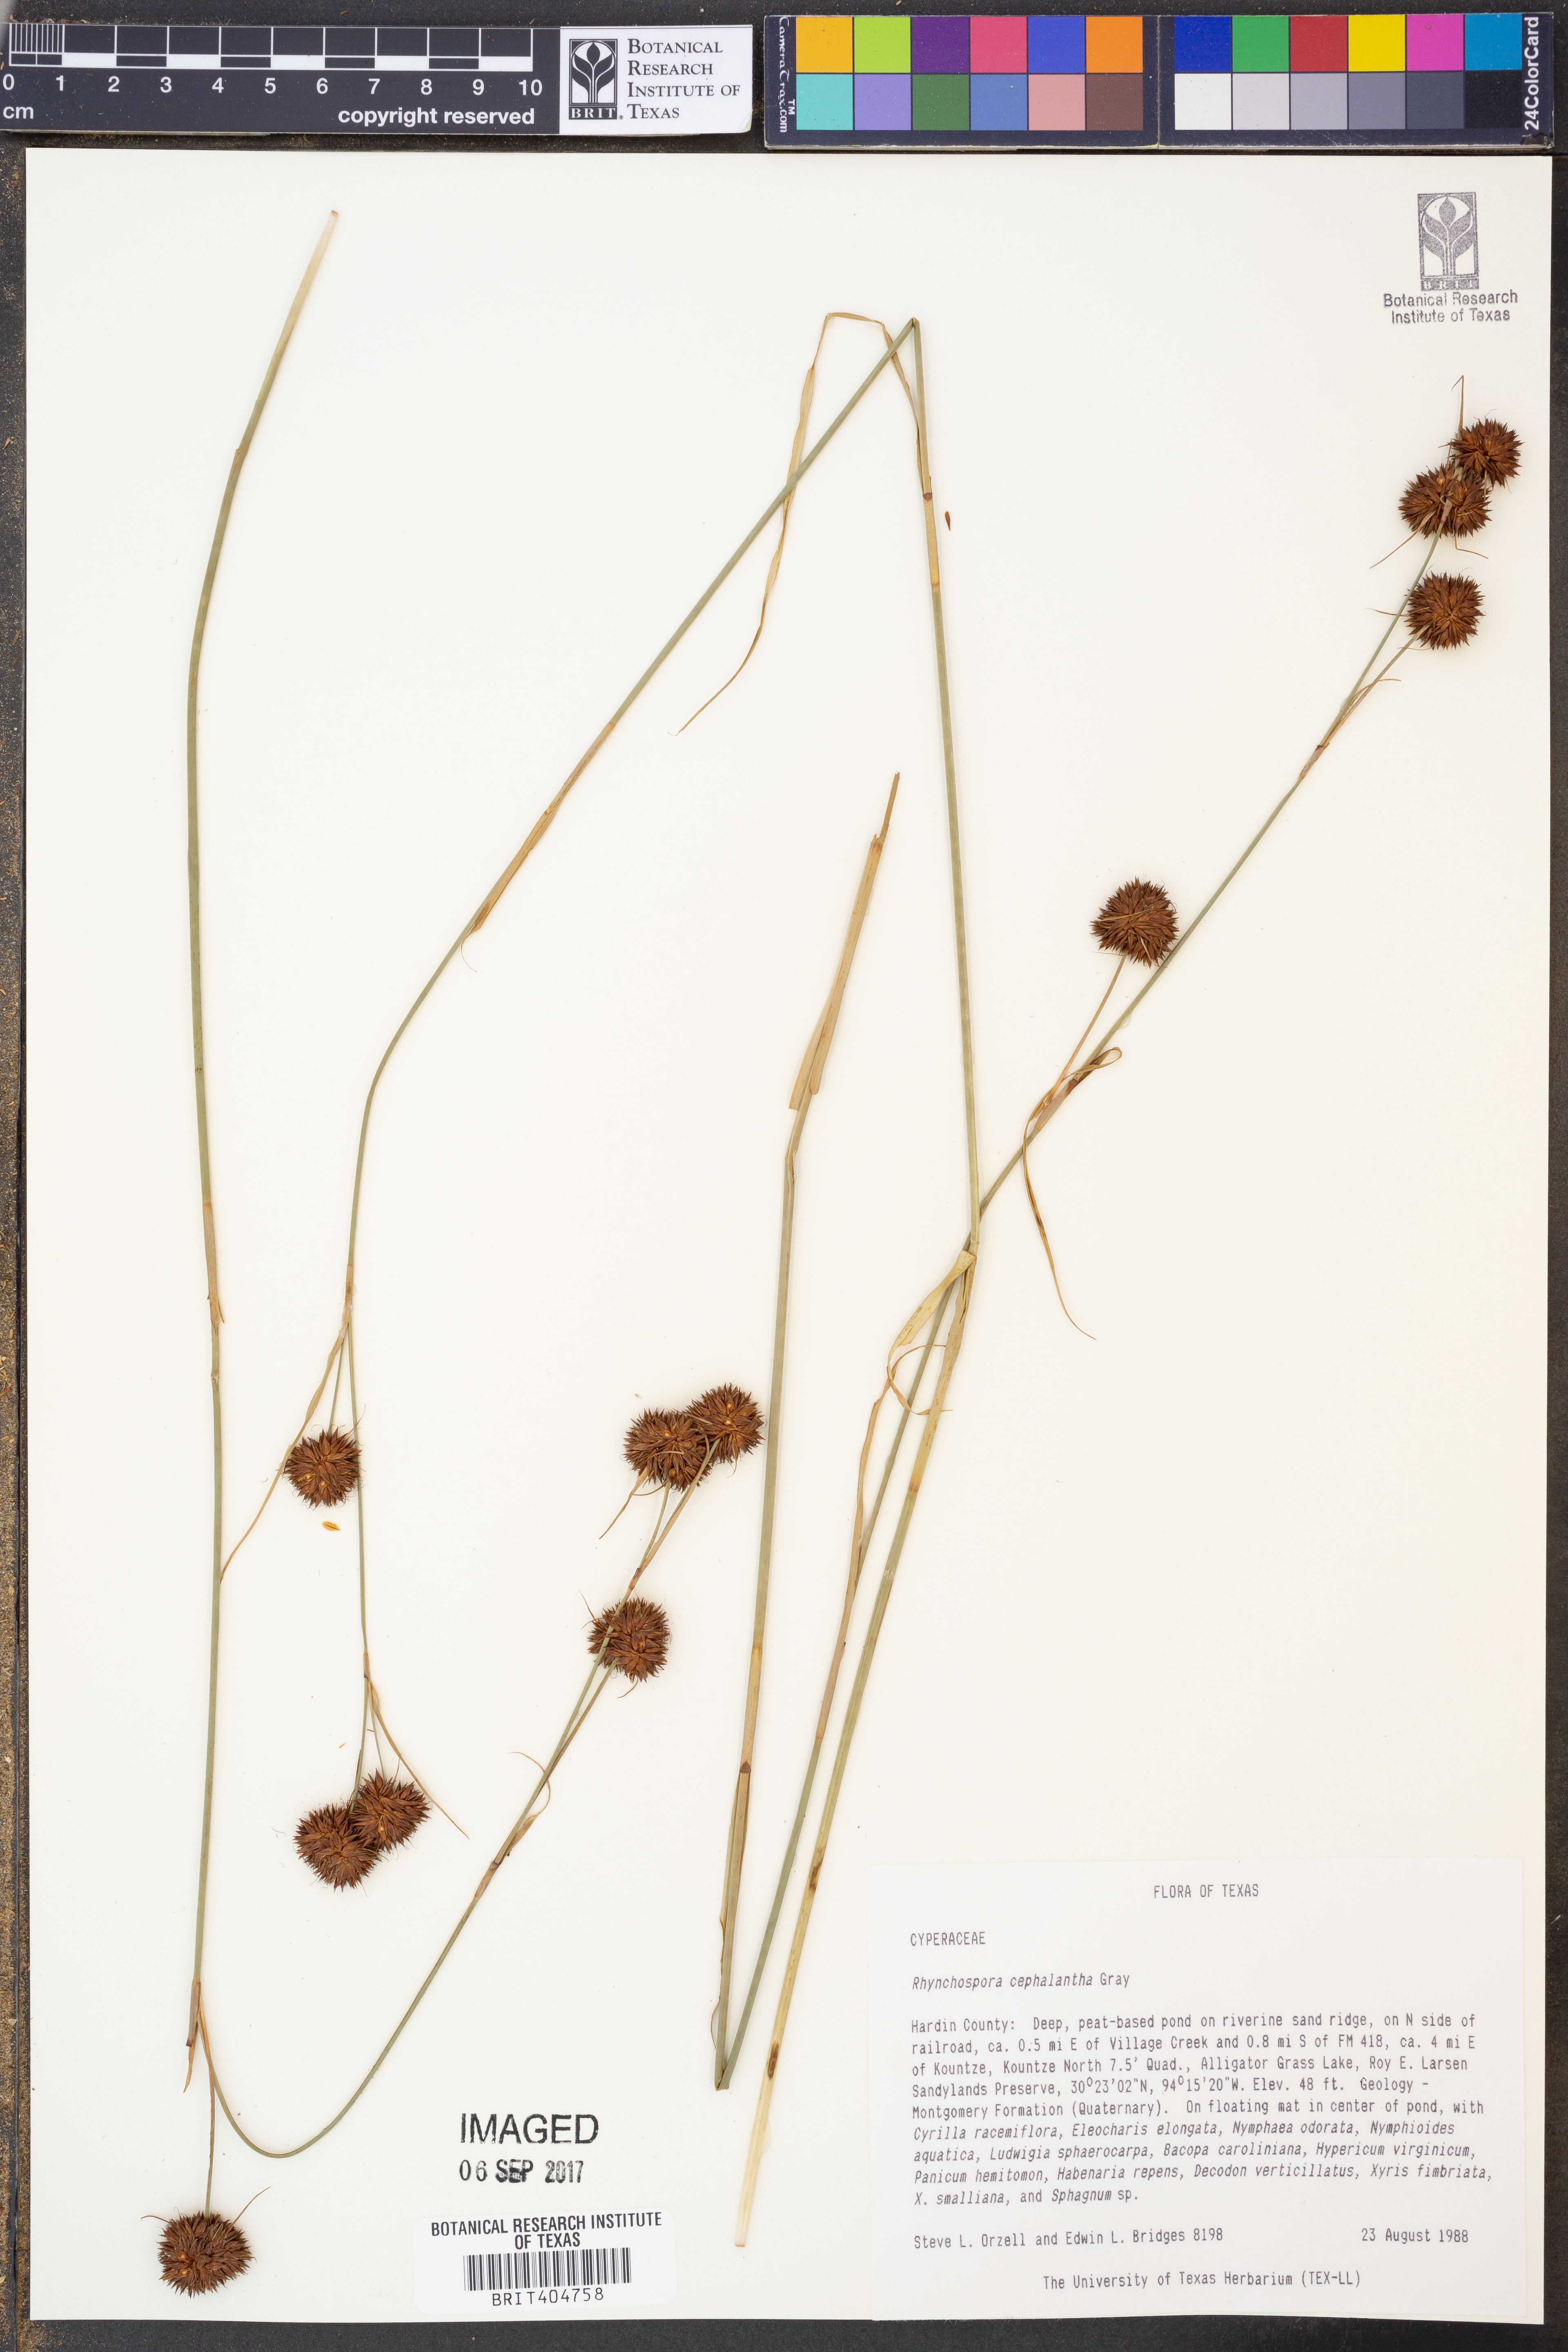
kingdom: Plantae
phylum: Tracheophyta
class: Liliopsida
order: Poales
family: Cyperaceae
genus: Rhynchospora
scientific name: Rhynchospora cephalantha
